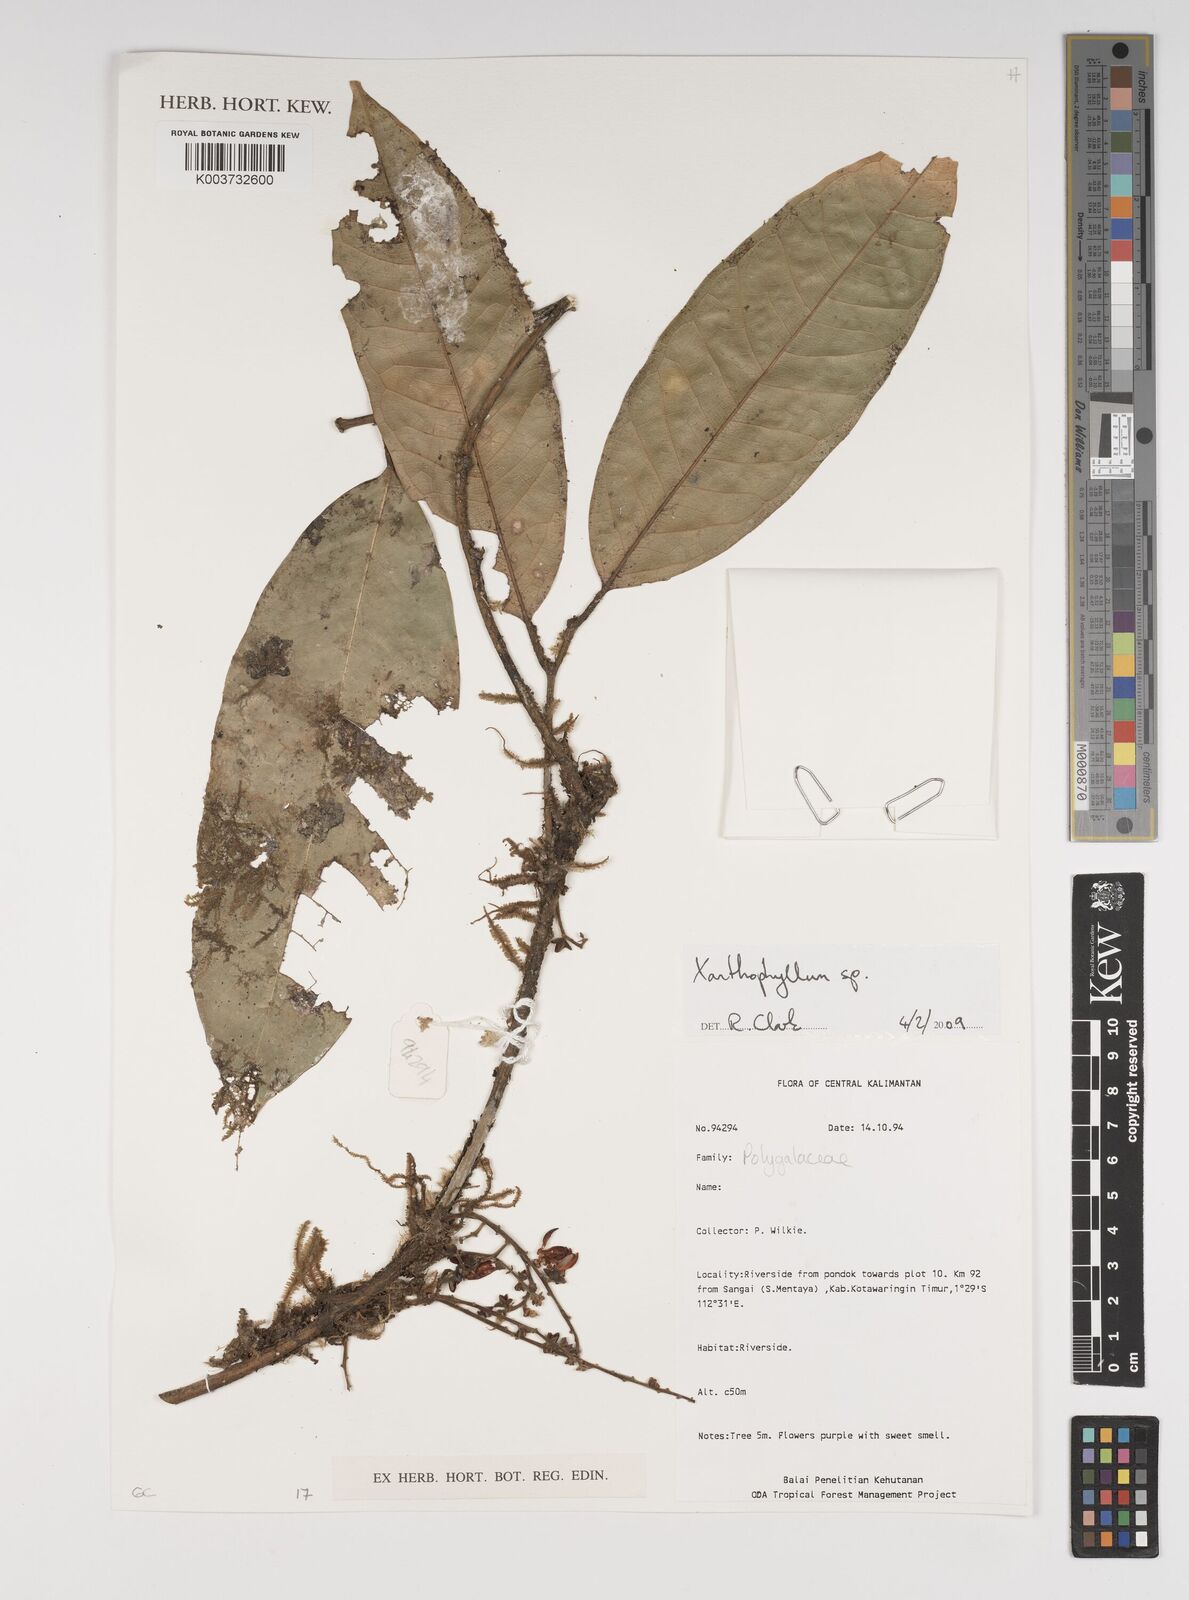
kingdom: Plantae
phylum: Tracheophyta
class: Magnoliopsida
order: Fabales
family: Polygalaceae
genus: Xanthophyllum
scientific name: Xanthophyllum
